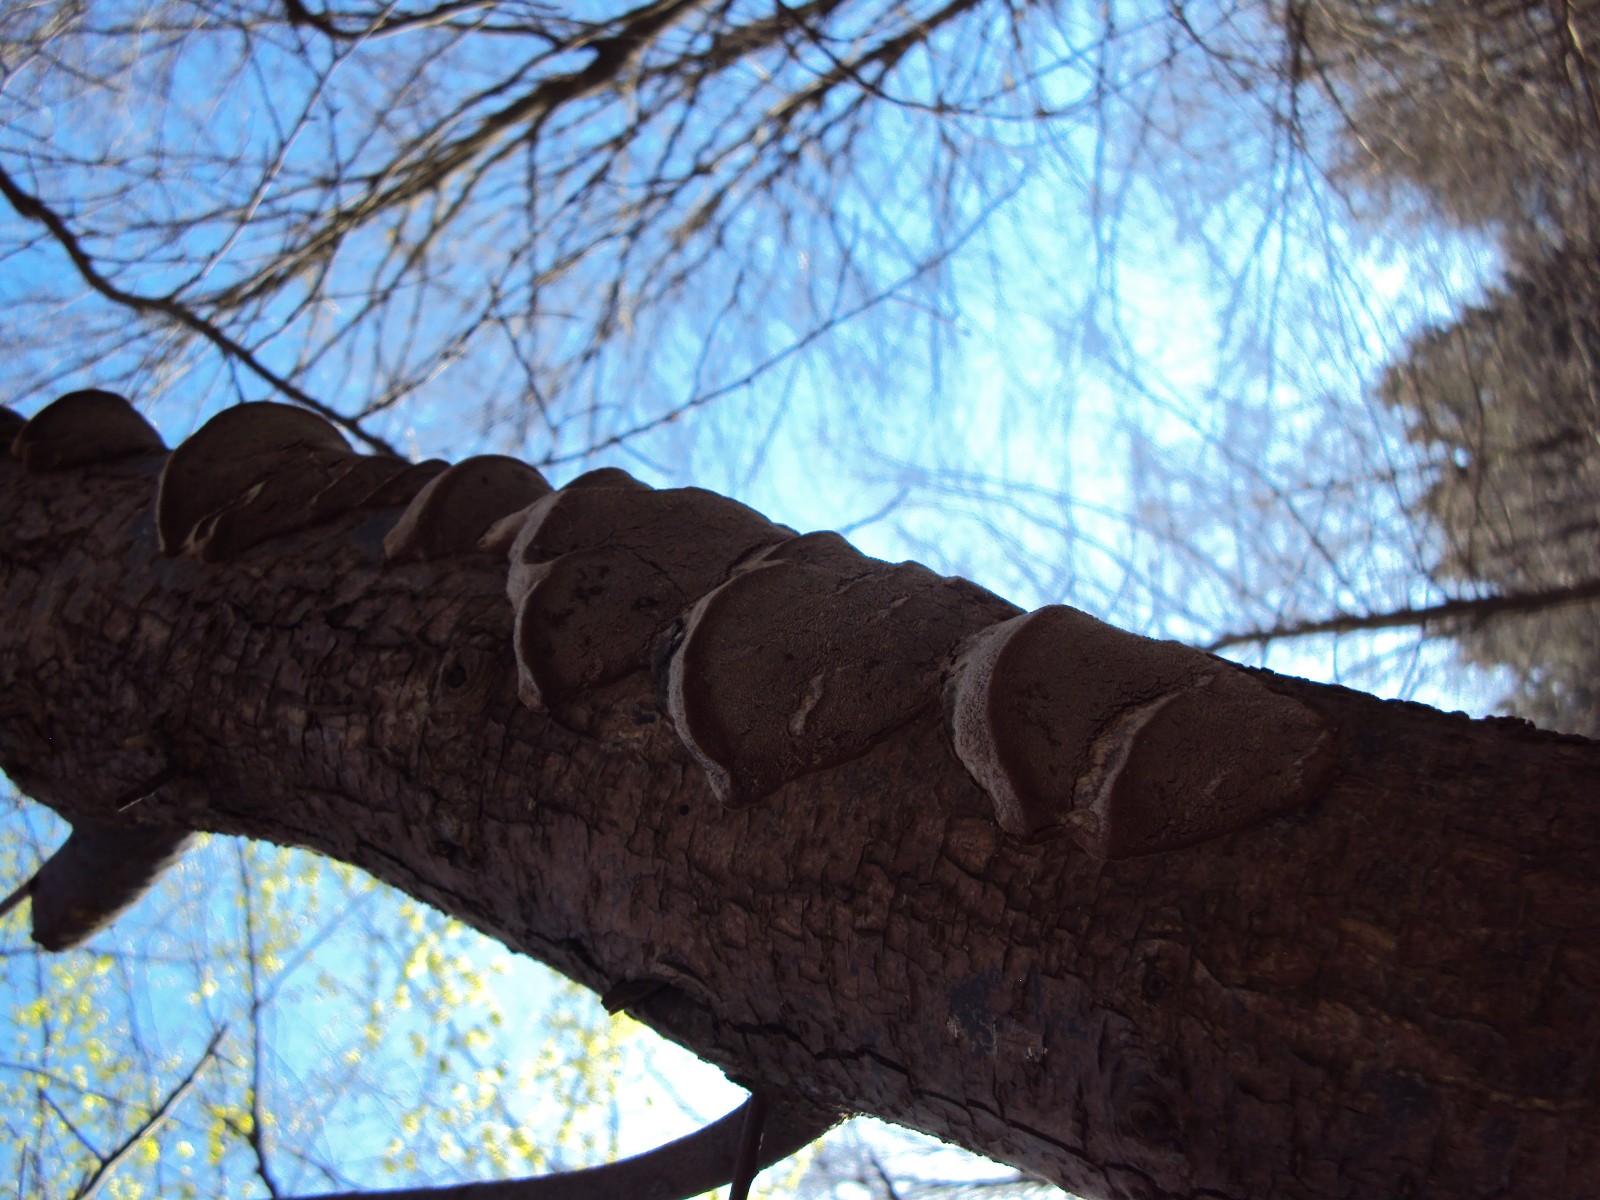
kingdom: Fungi
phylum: Basidiomycota
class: Agaricomycetes
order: Hymenochaetales
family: Hymenochaetaceae
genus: Phellinus
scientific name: Phellinus pomaceus
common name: blomme-ildporesvamp
